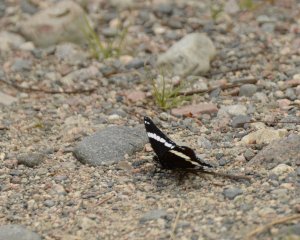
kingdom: Animalia
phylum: Arthropoda
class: Insecta
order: Lepidoptera
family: Nymphalidae
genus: Limenitis
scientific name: Limenitis arthemis
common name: Red-spotted Admiral
